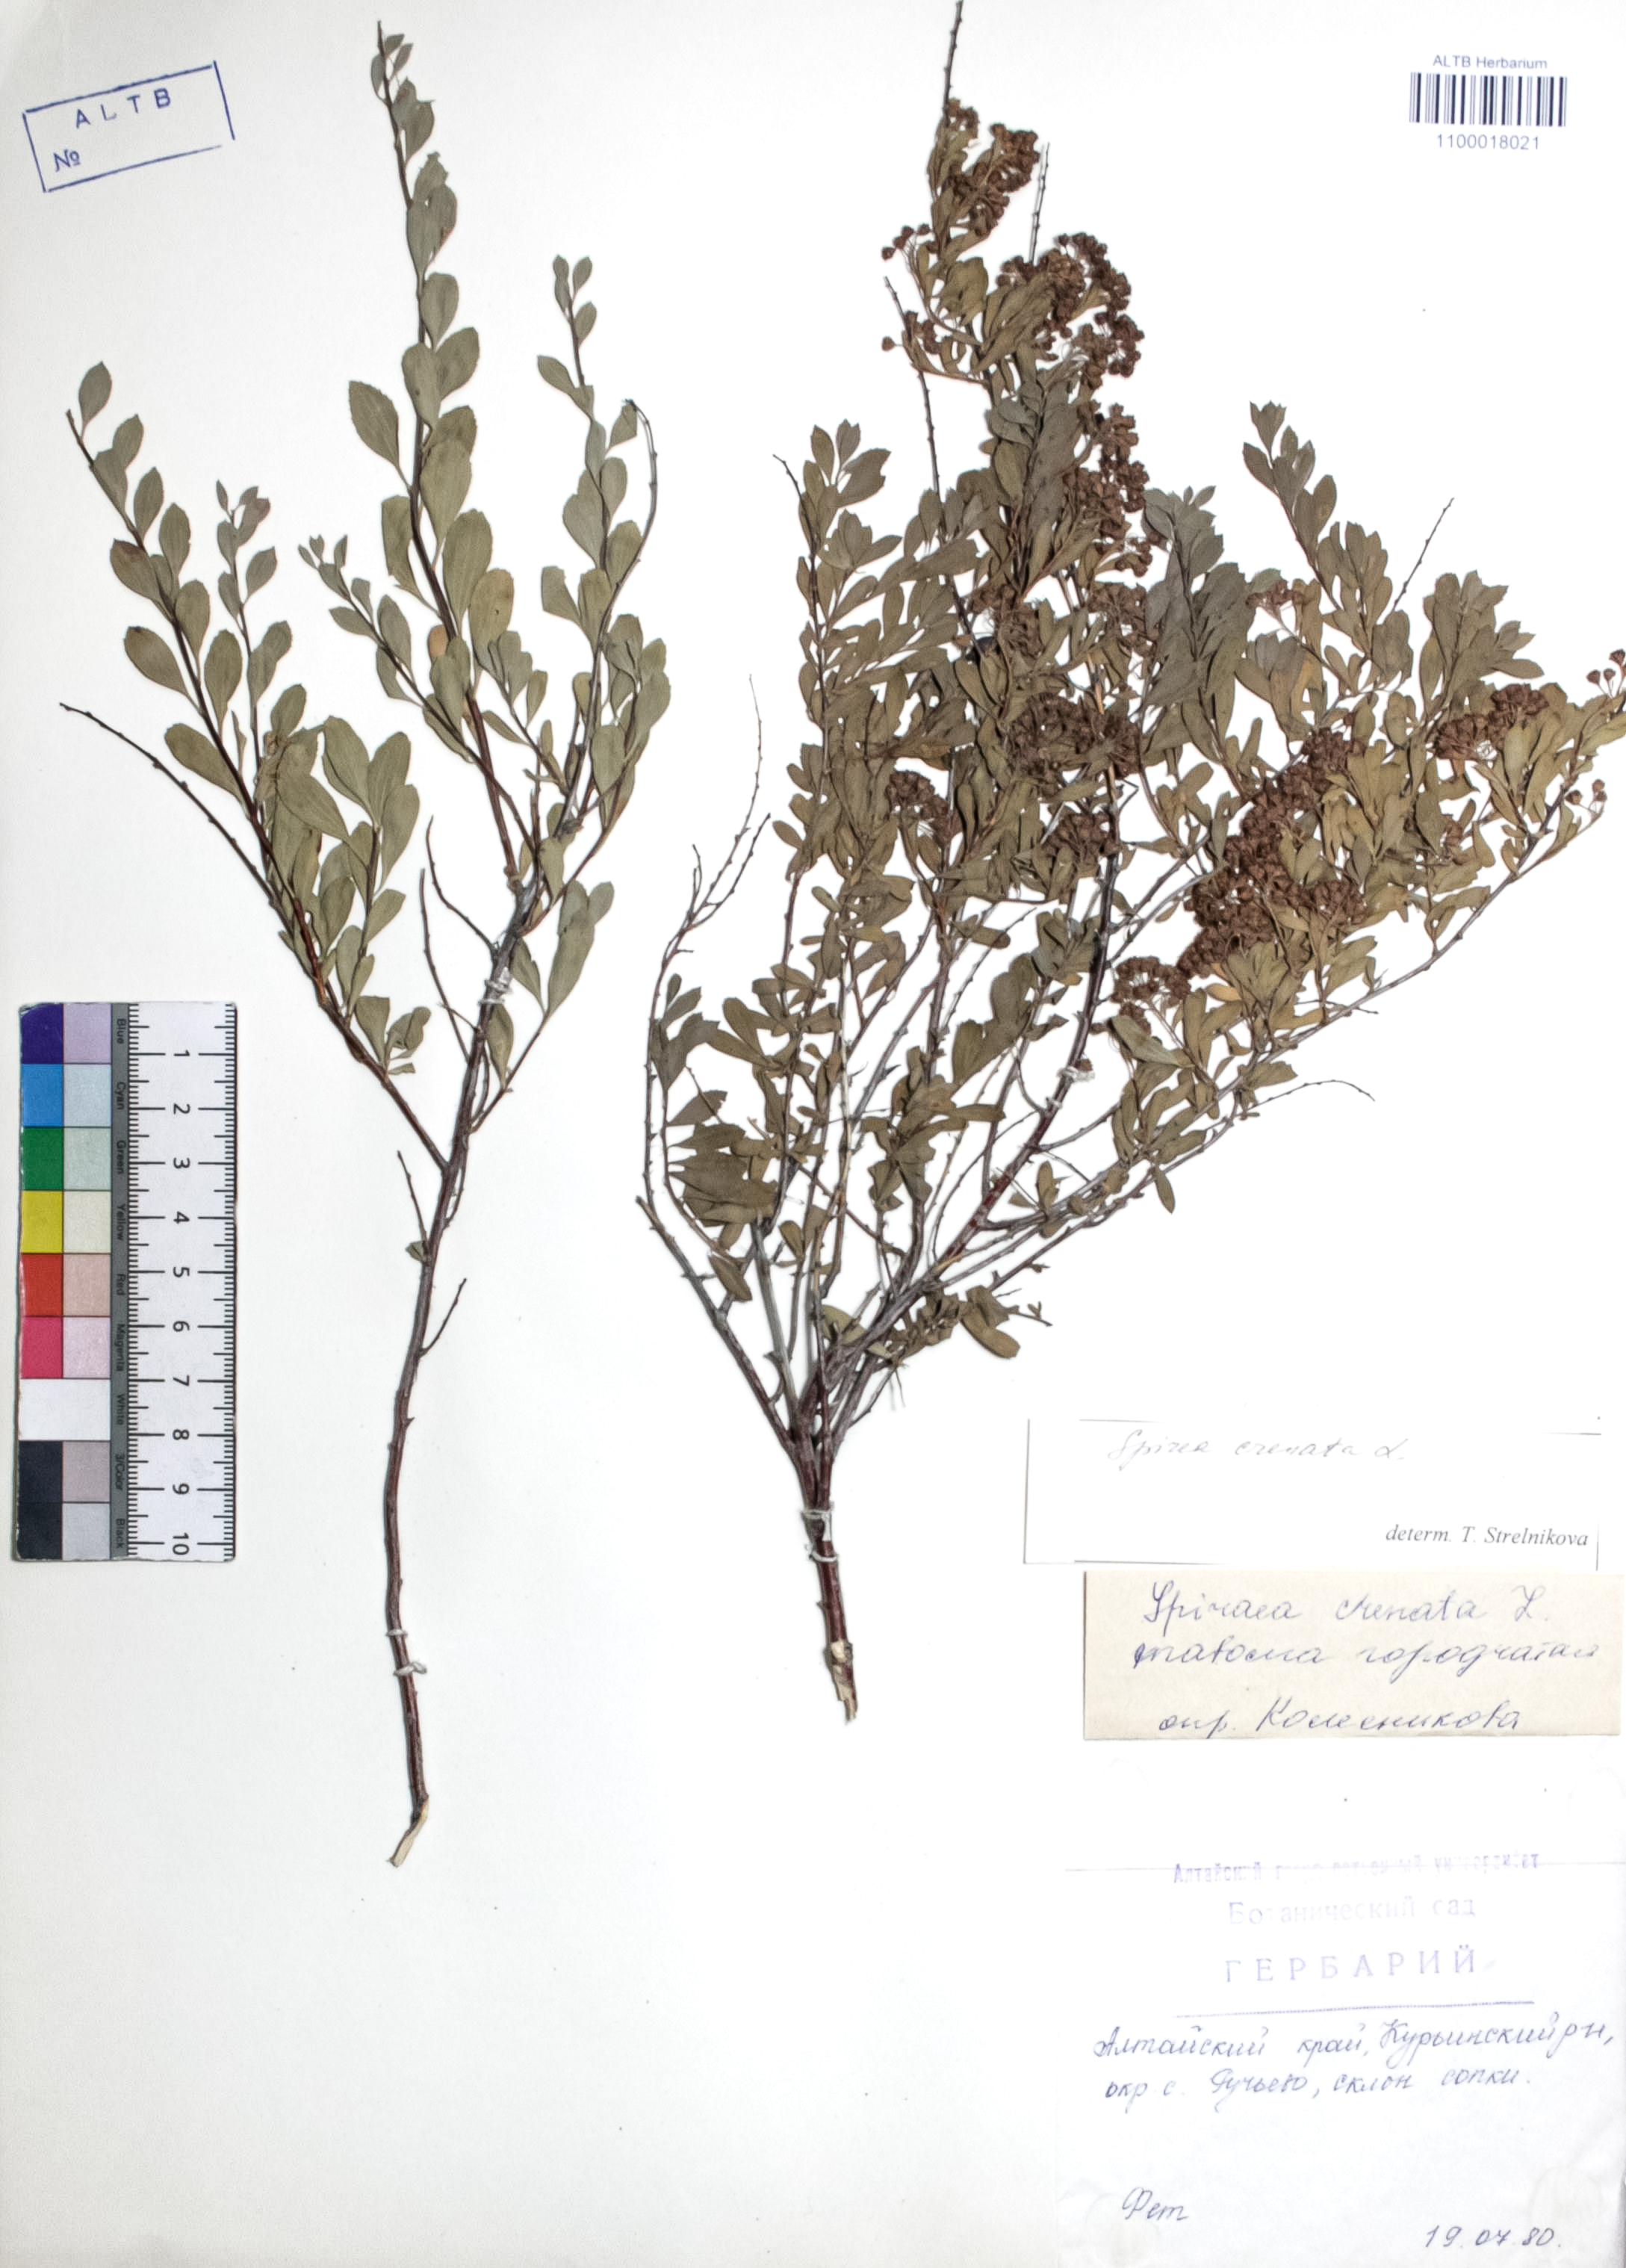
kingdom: Plantae
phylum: Tracheophyta
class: Magnoliopsida
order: Rosales
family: Rosaceae
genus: Spiraea
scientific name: Spiraea crenata
